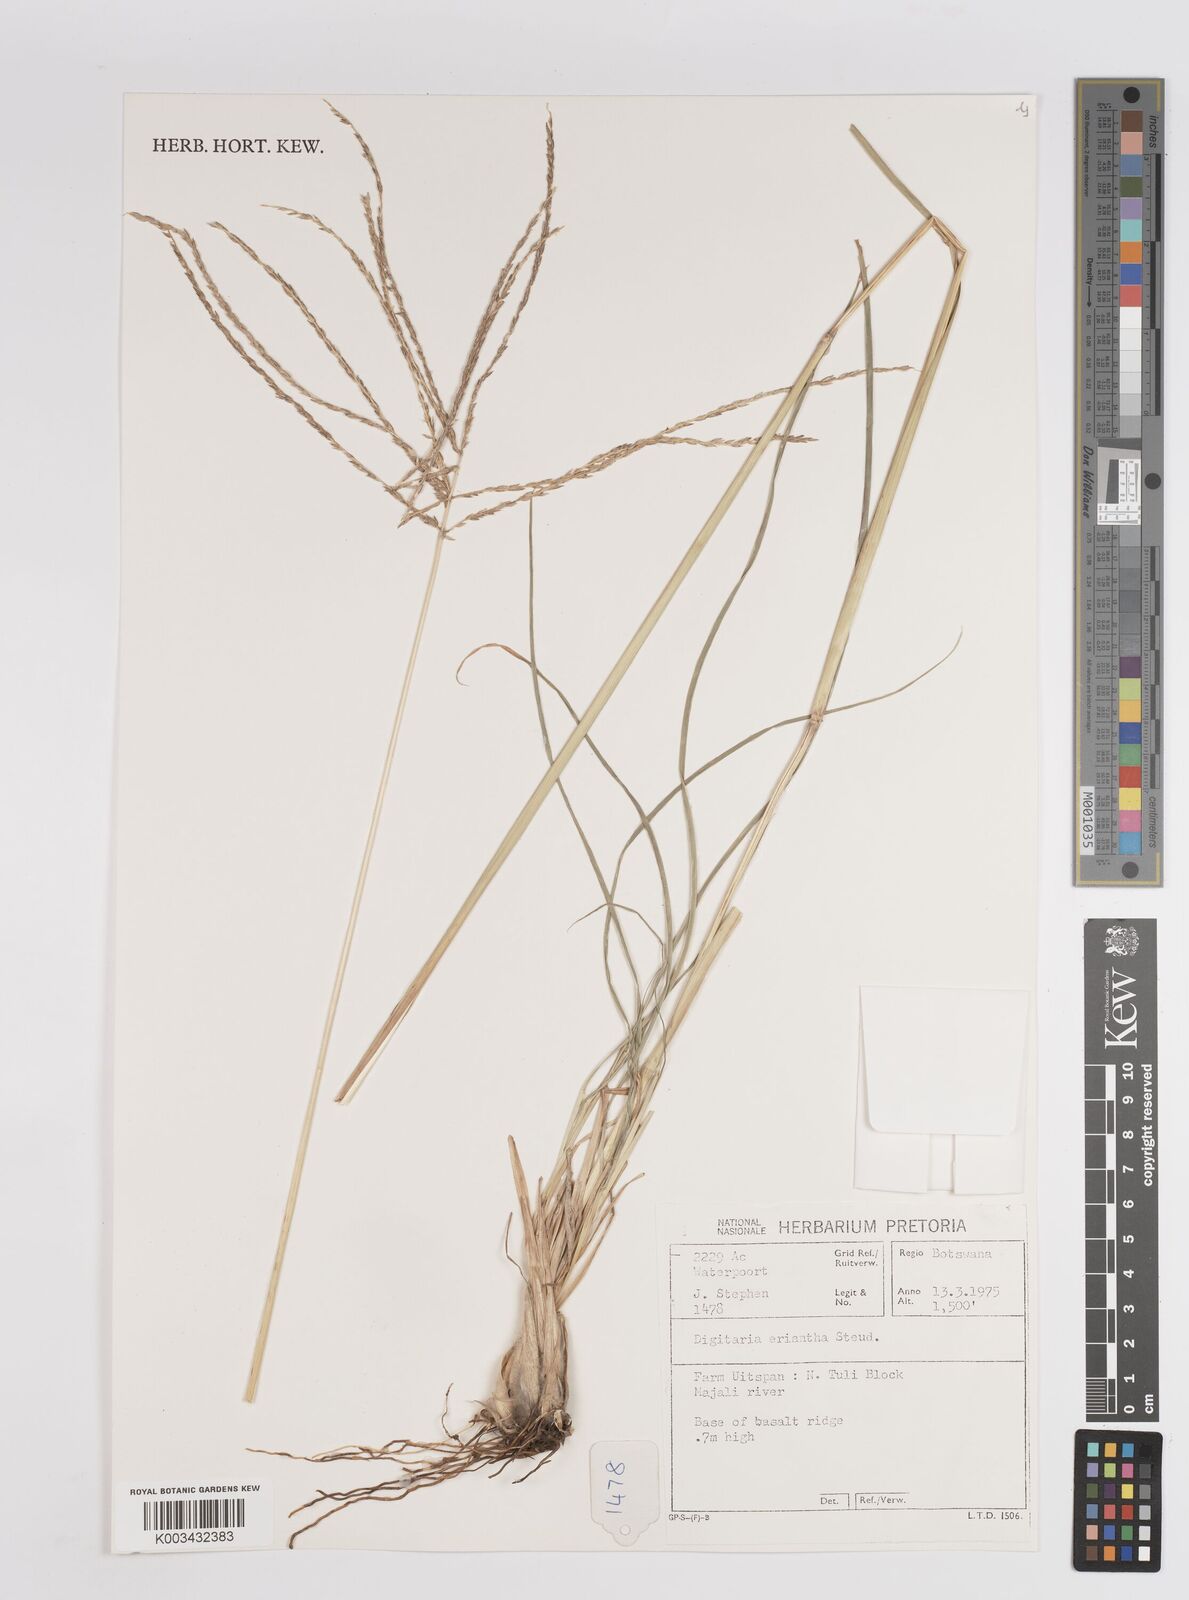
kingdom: Plantae
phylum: Tracheophyta
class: Liliopsida
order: Poales
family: Poaceae
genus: Digitaria
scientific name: Digitaria eriantha
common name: Digitgrass
